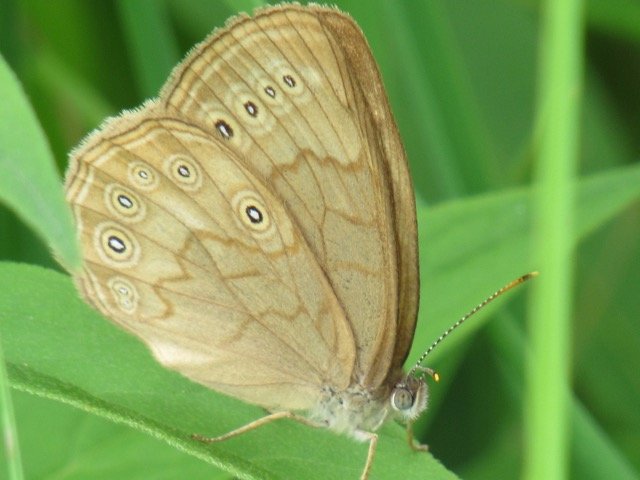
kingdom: Animalia
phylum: Arthropoda
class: Insecta
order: Lepidoptera
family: Nymphalidae
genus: Lethe
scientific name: Lethe eurydice
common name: Eyed Brown
